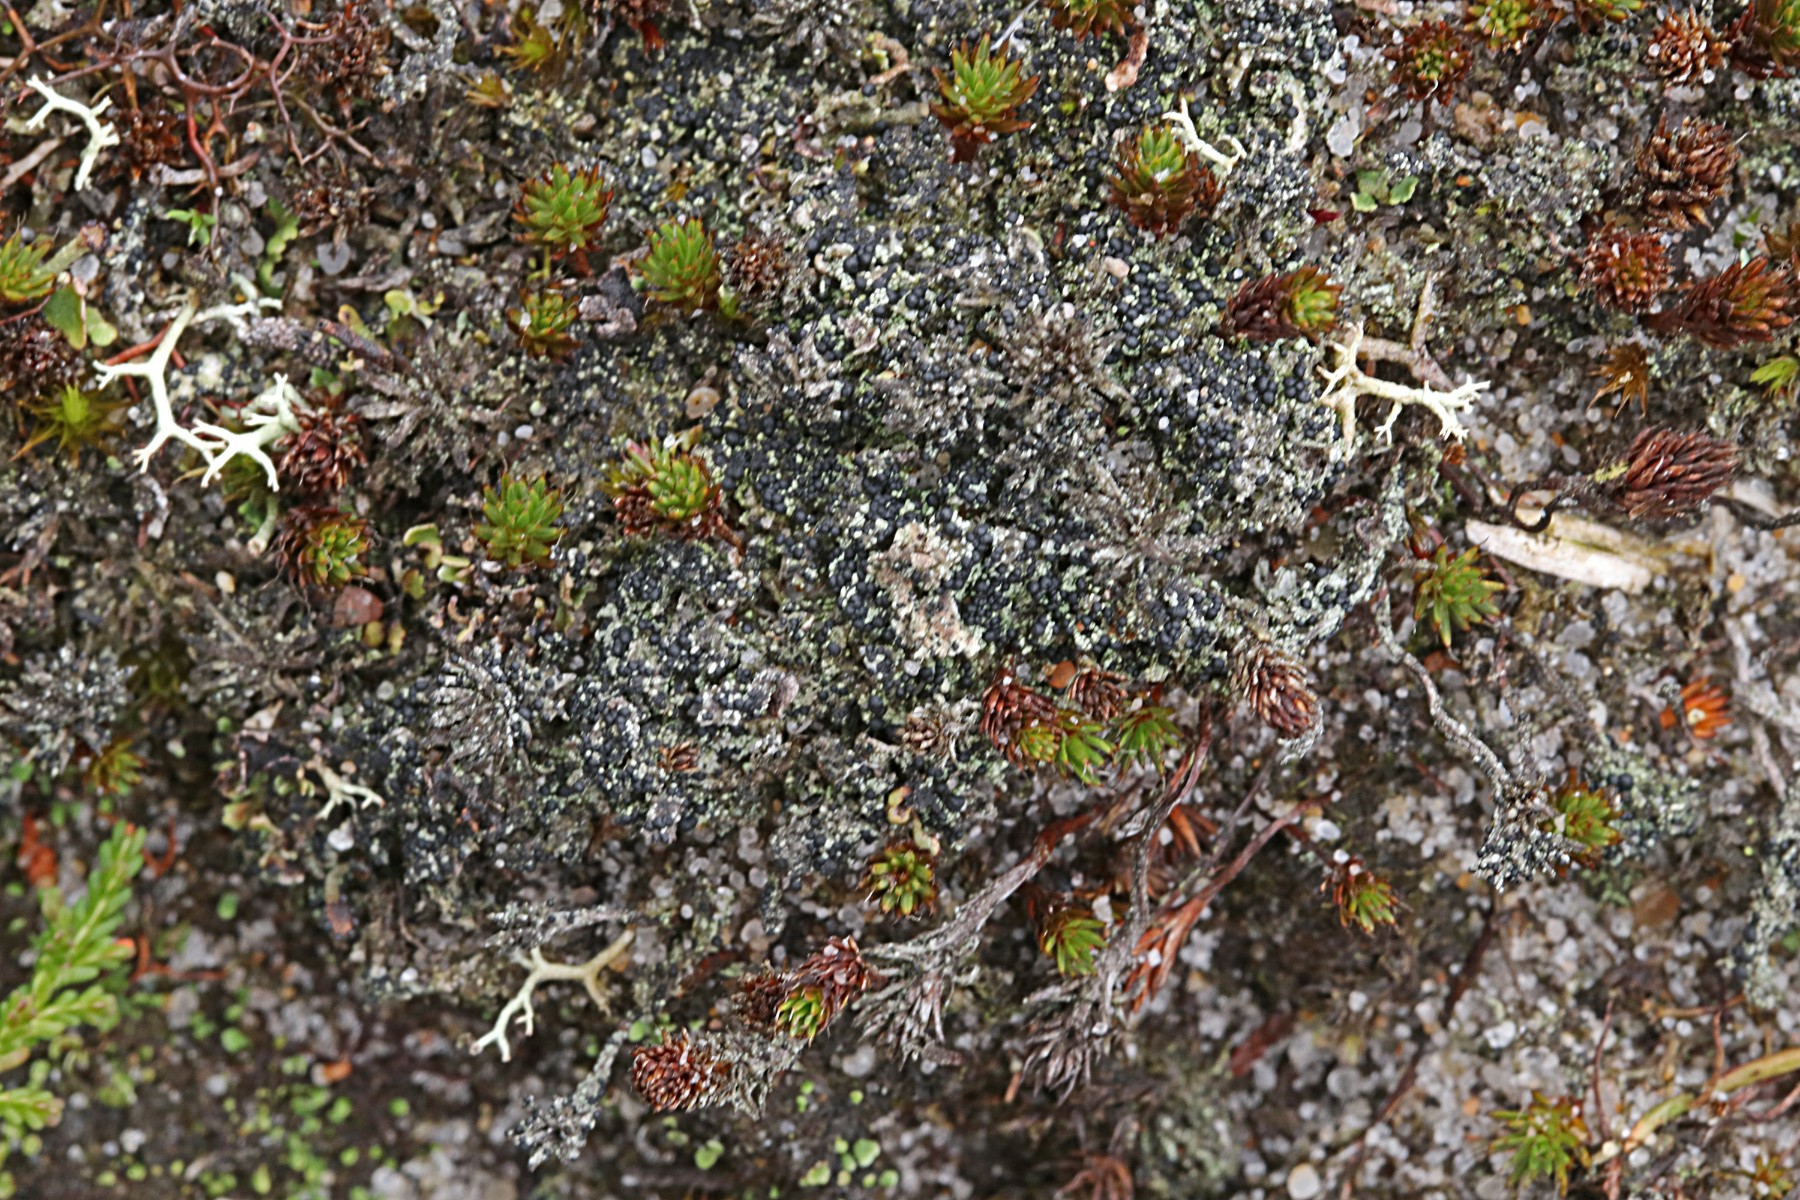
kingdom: Fungi
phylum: Ascomycota
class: Lecanoromycetes
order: Lecanorales
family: Byssolomataceae
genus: Micarea
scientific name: Micarea lignaria
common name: tørve-knaplav
